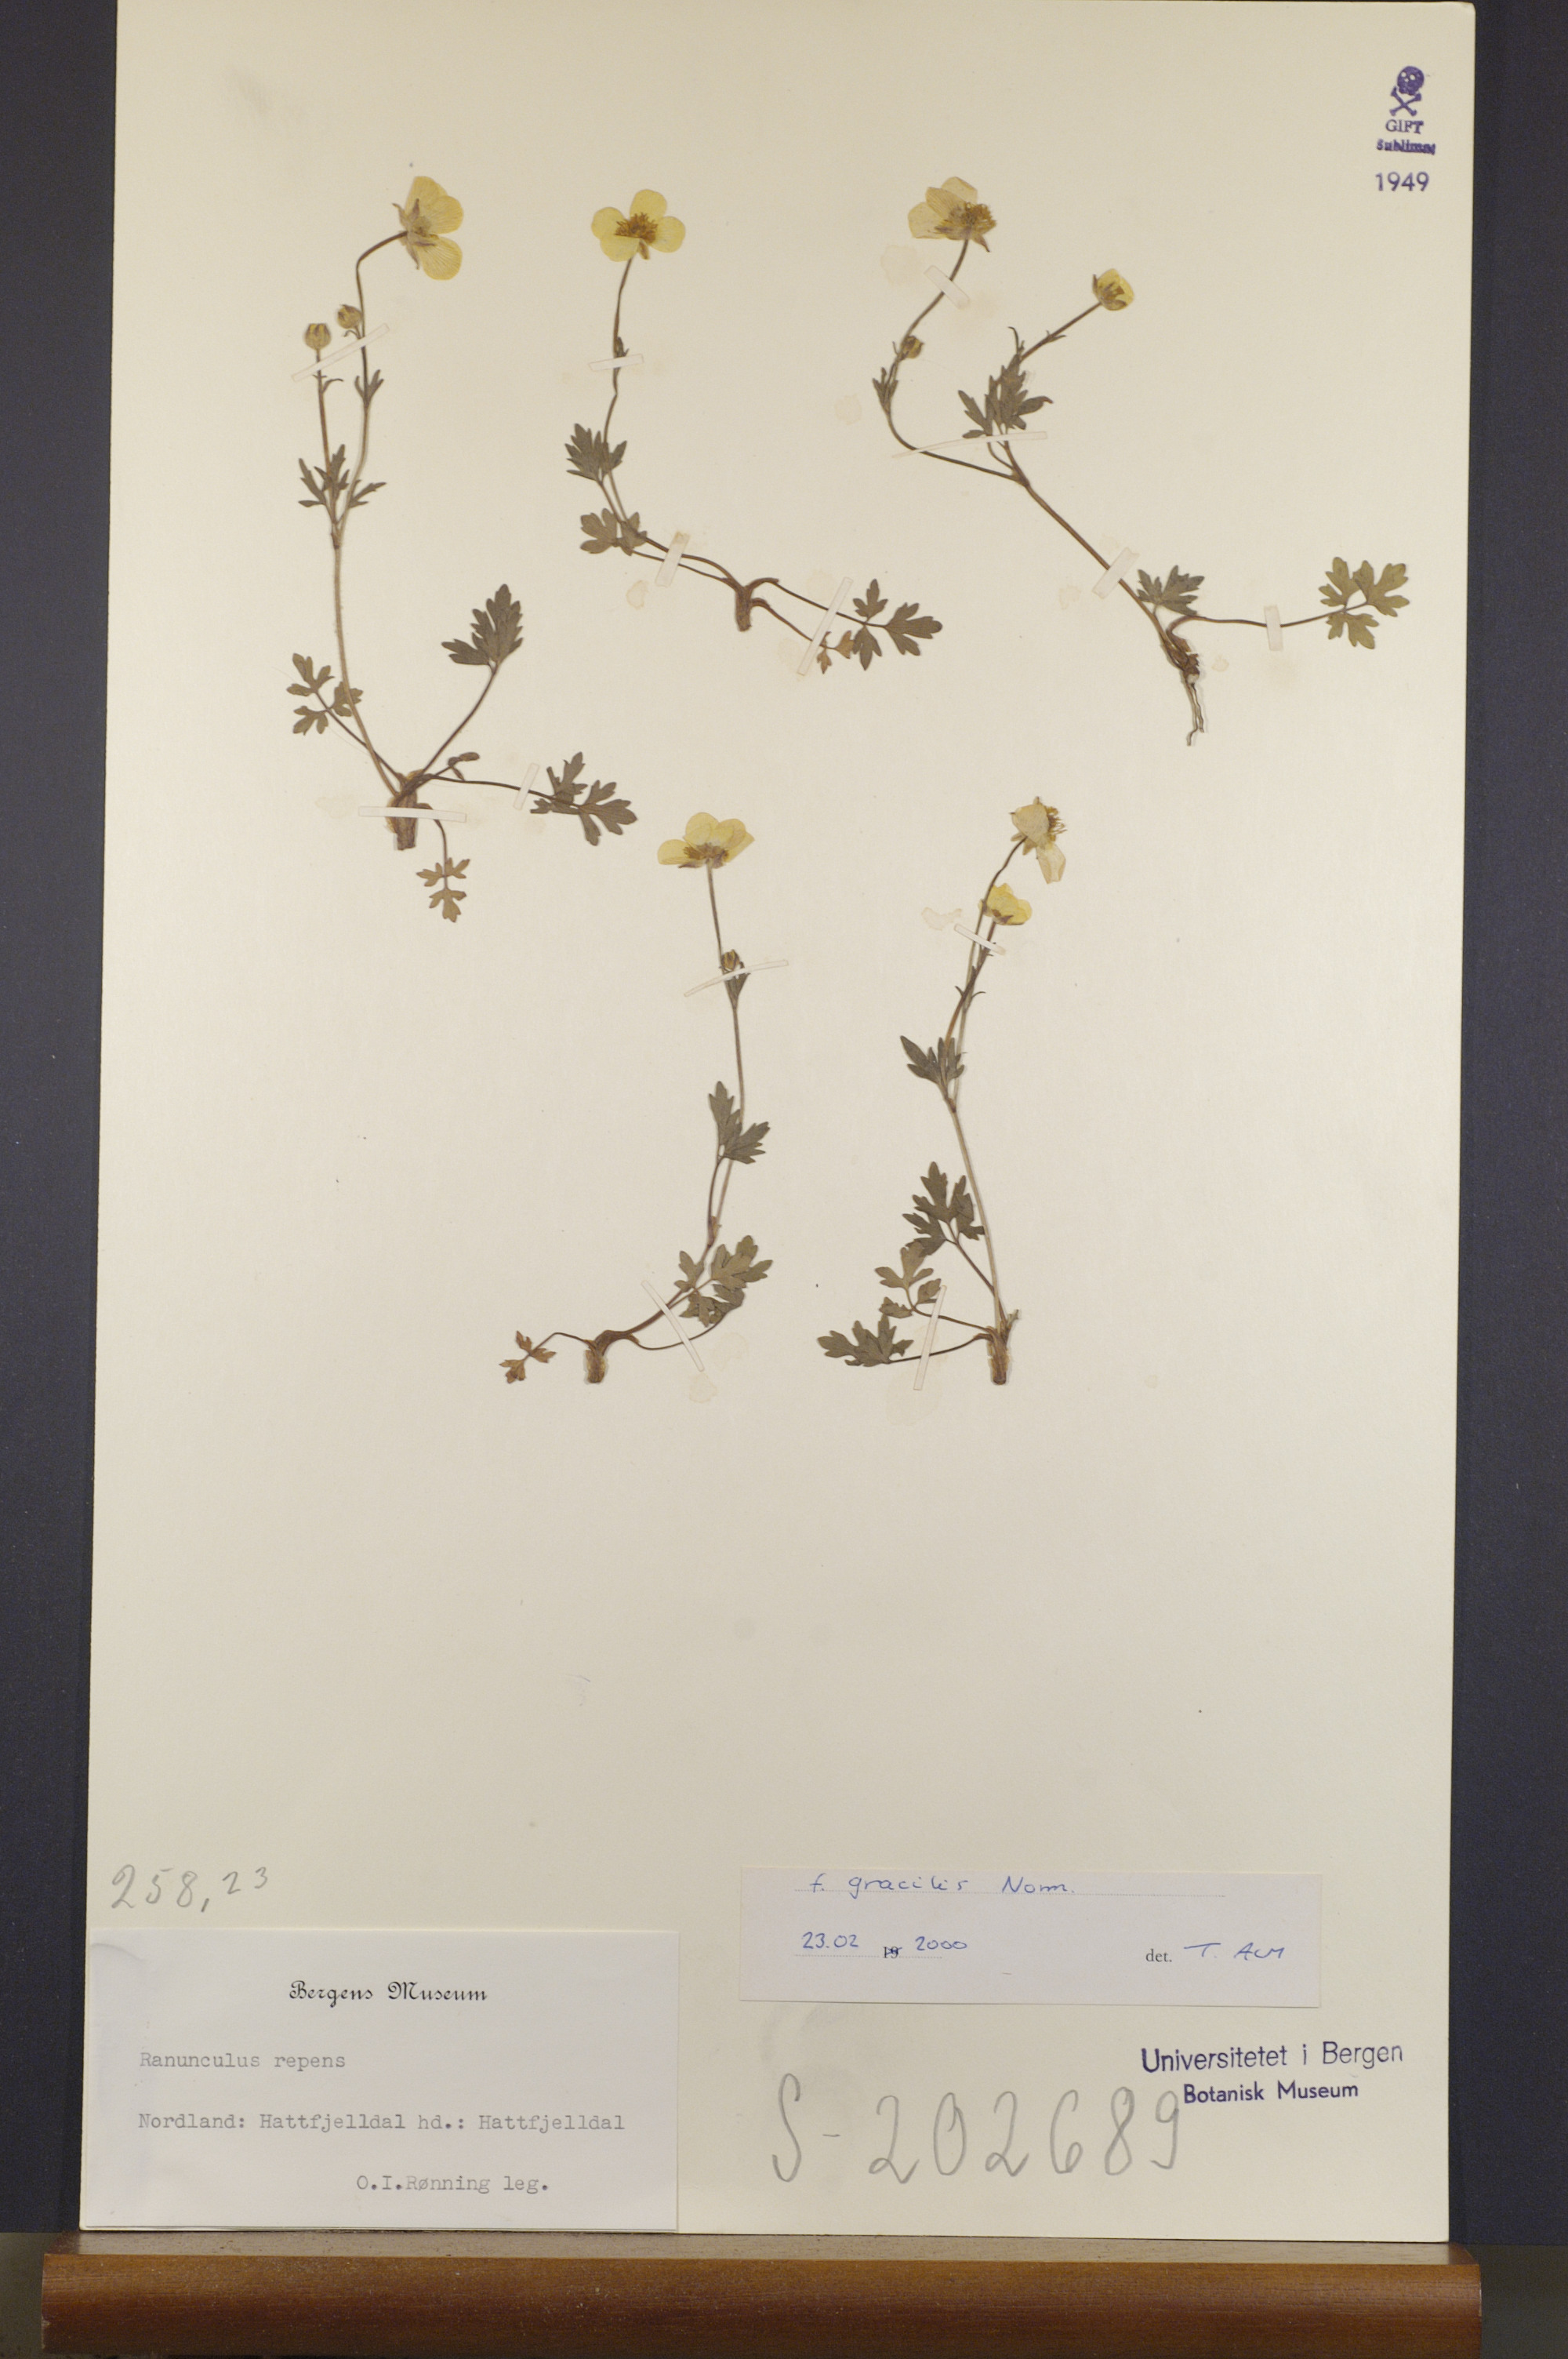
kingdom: Plantae
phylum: Tracheophyta
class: Magnoliopsida
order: Ranunculales
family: Ranunculaceae
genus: Ranunculus
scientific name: Ranunculus repens
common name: Creeping buttercup
